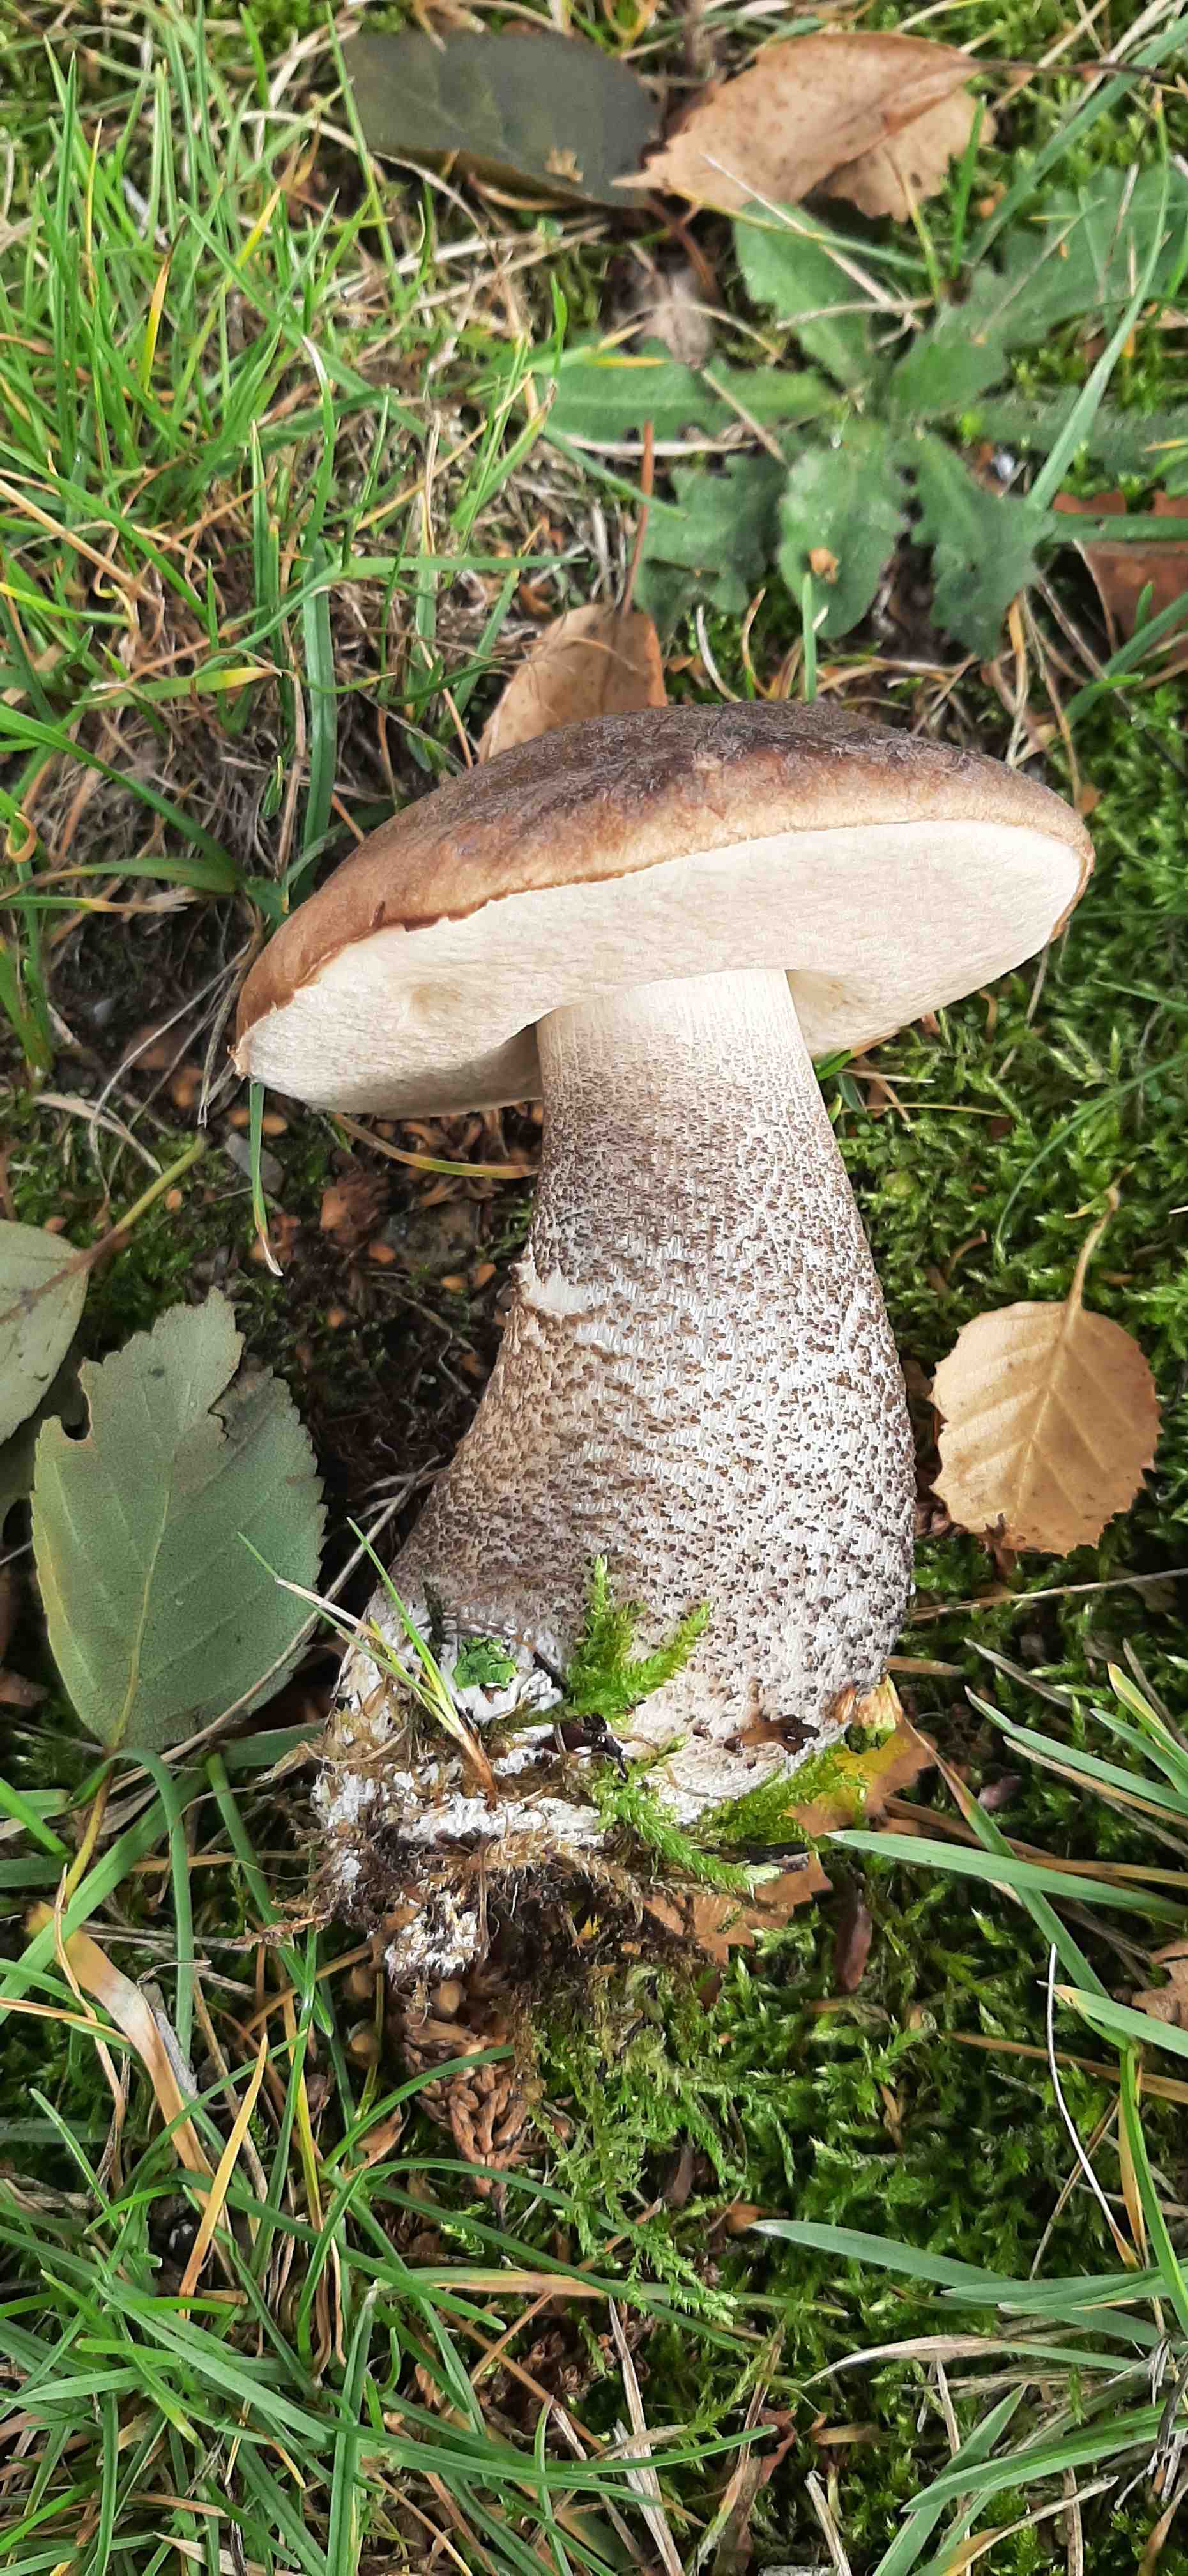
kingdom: Fungi
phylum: Basidiomycota
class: Agaricomycetes
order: Boletales
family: Boletaceae
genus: Leccinum
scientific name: Leccinum scabrum
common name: brun skælrørhat
